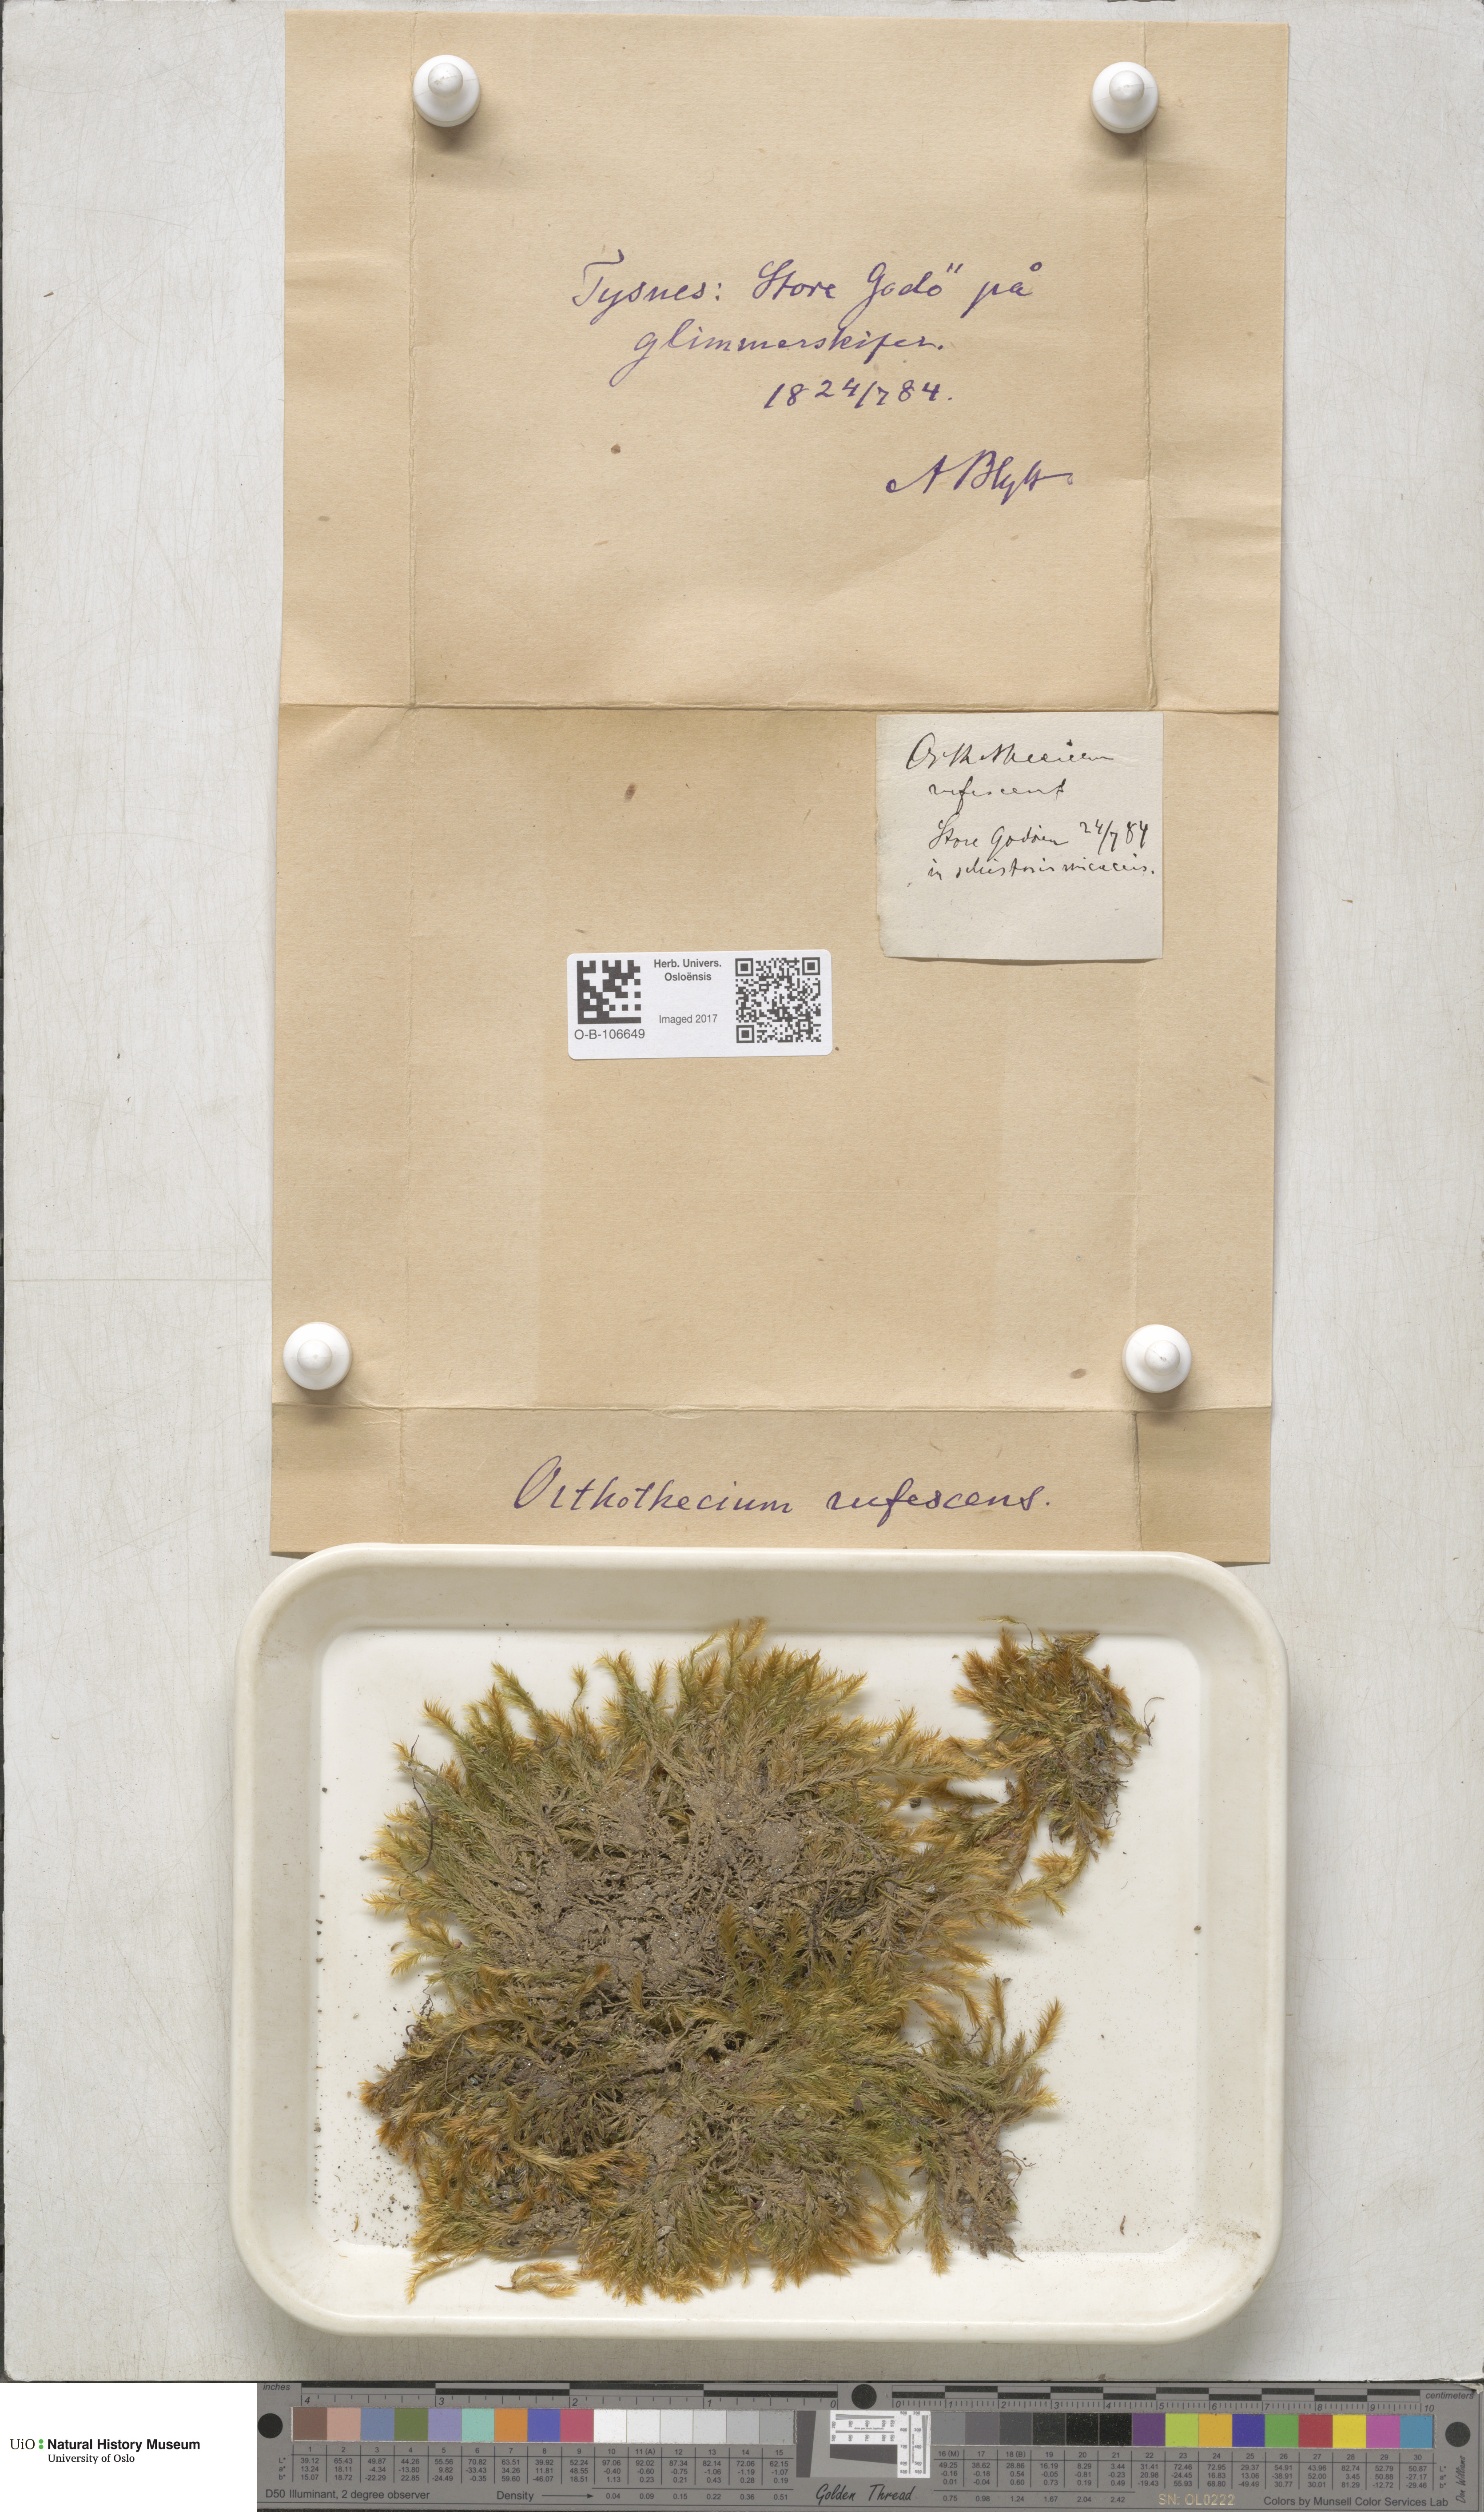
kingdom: Plantae
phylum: Bryophyta
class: Bryopsida
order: Hypnales
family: Plagiotheciaceae
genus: Orthothecium
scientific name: Orthothecium rufescens
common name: Red leskea
